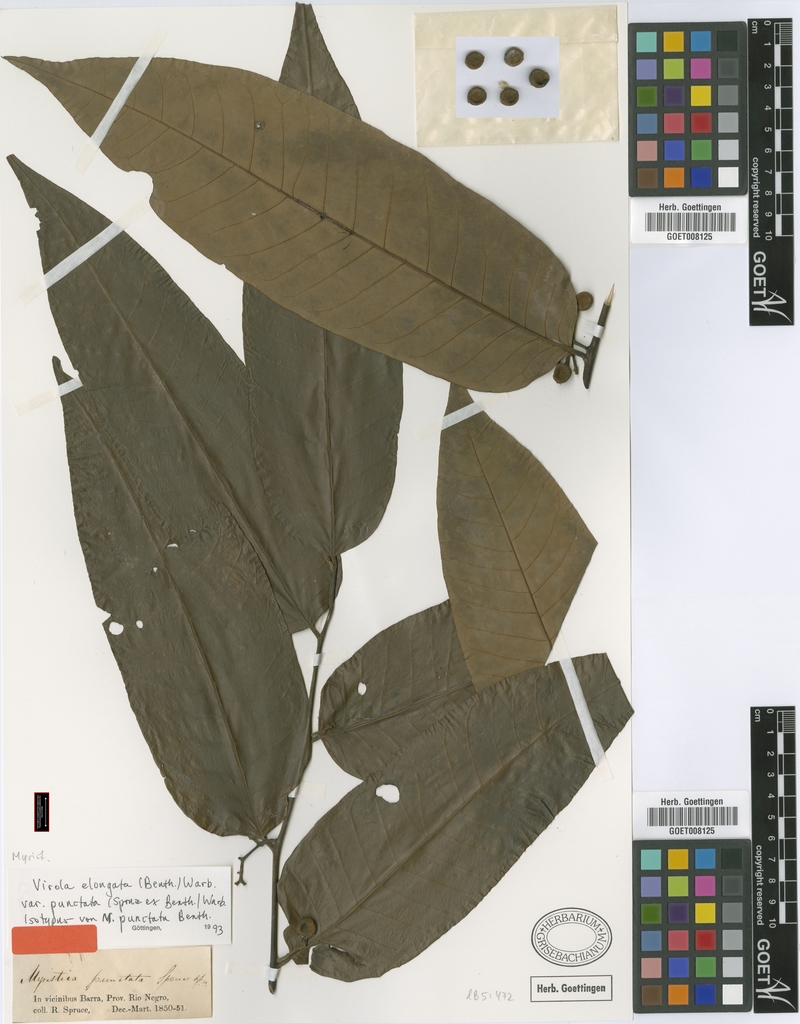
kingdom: Plantae
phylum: Tracheophyta
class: Magnoliopsida
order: Magnoliales
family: Myristicaceae
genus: Virola
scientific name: Virola elongata
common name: Sacred virola
